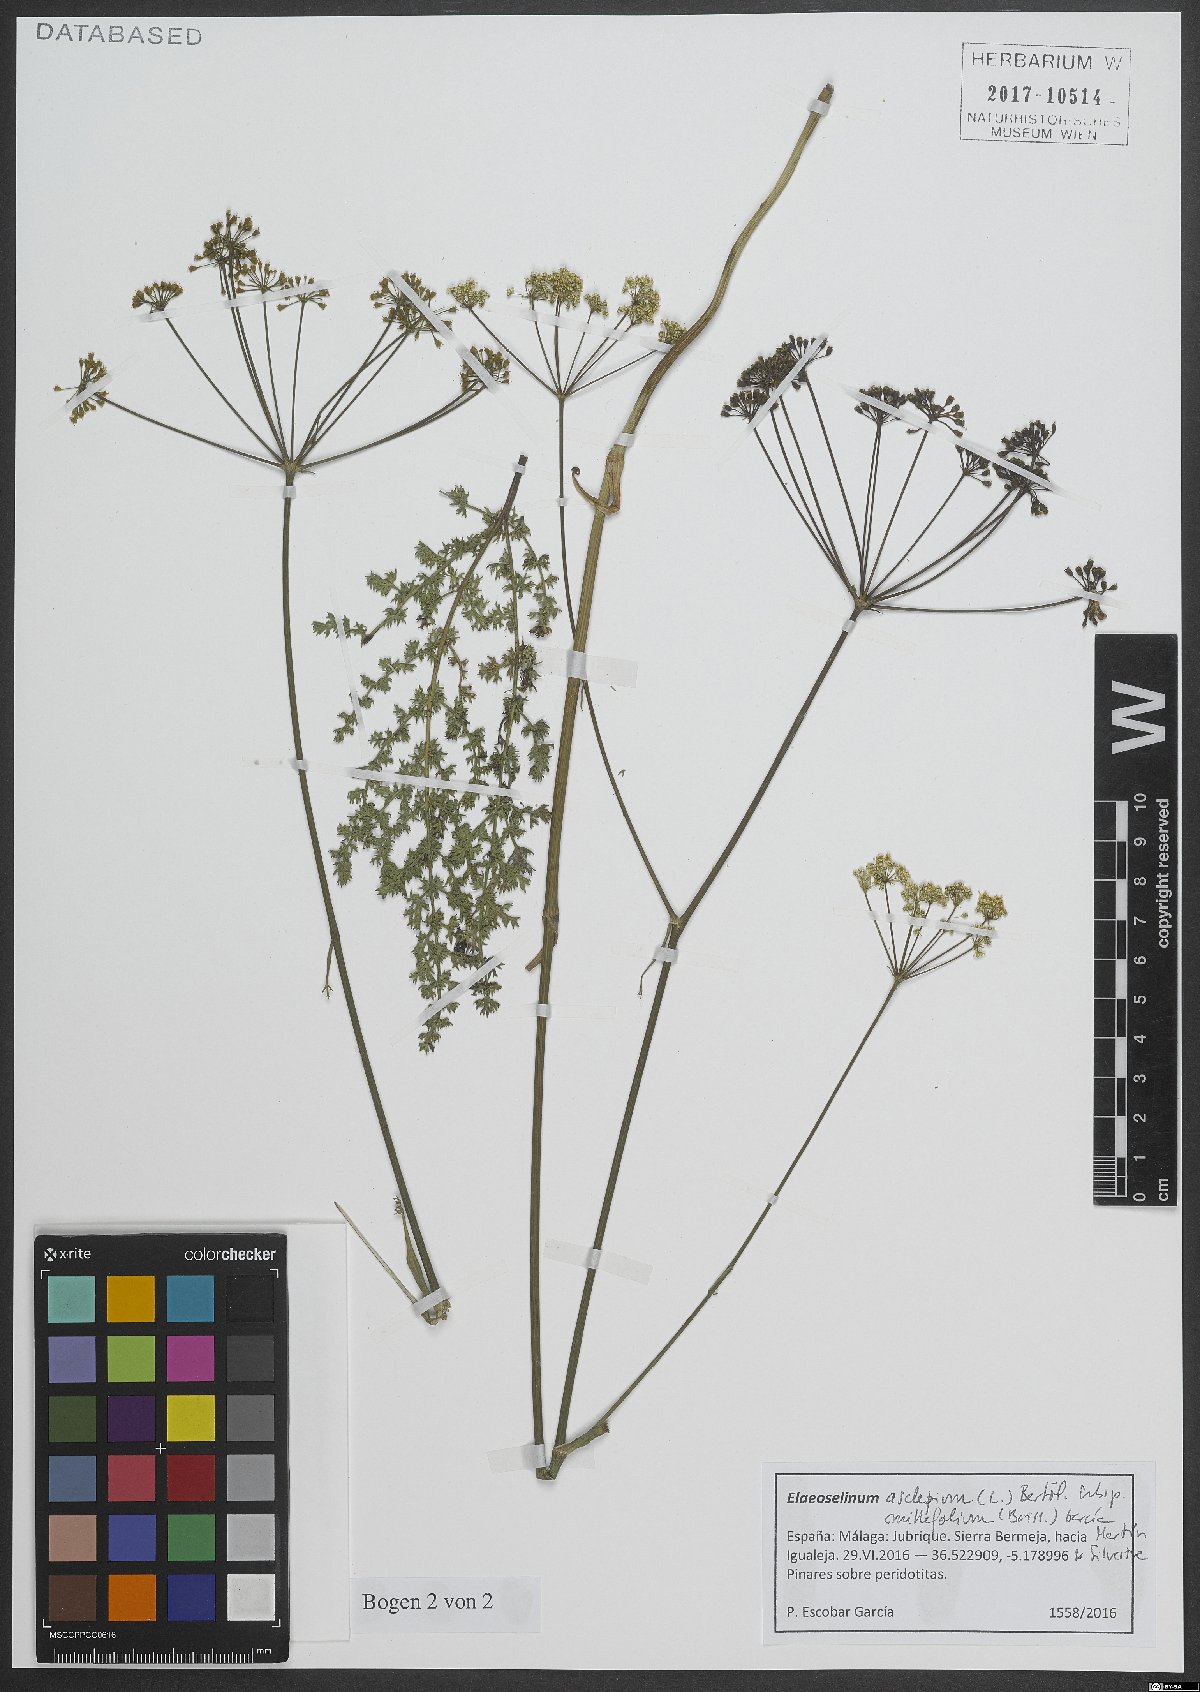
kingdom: Plantae
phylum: Tracheophyta
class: Magnoliopsida
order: Apiales
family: Apiaceae
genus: Thapsia
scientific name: Thapsia asclepium
